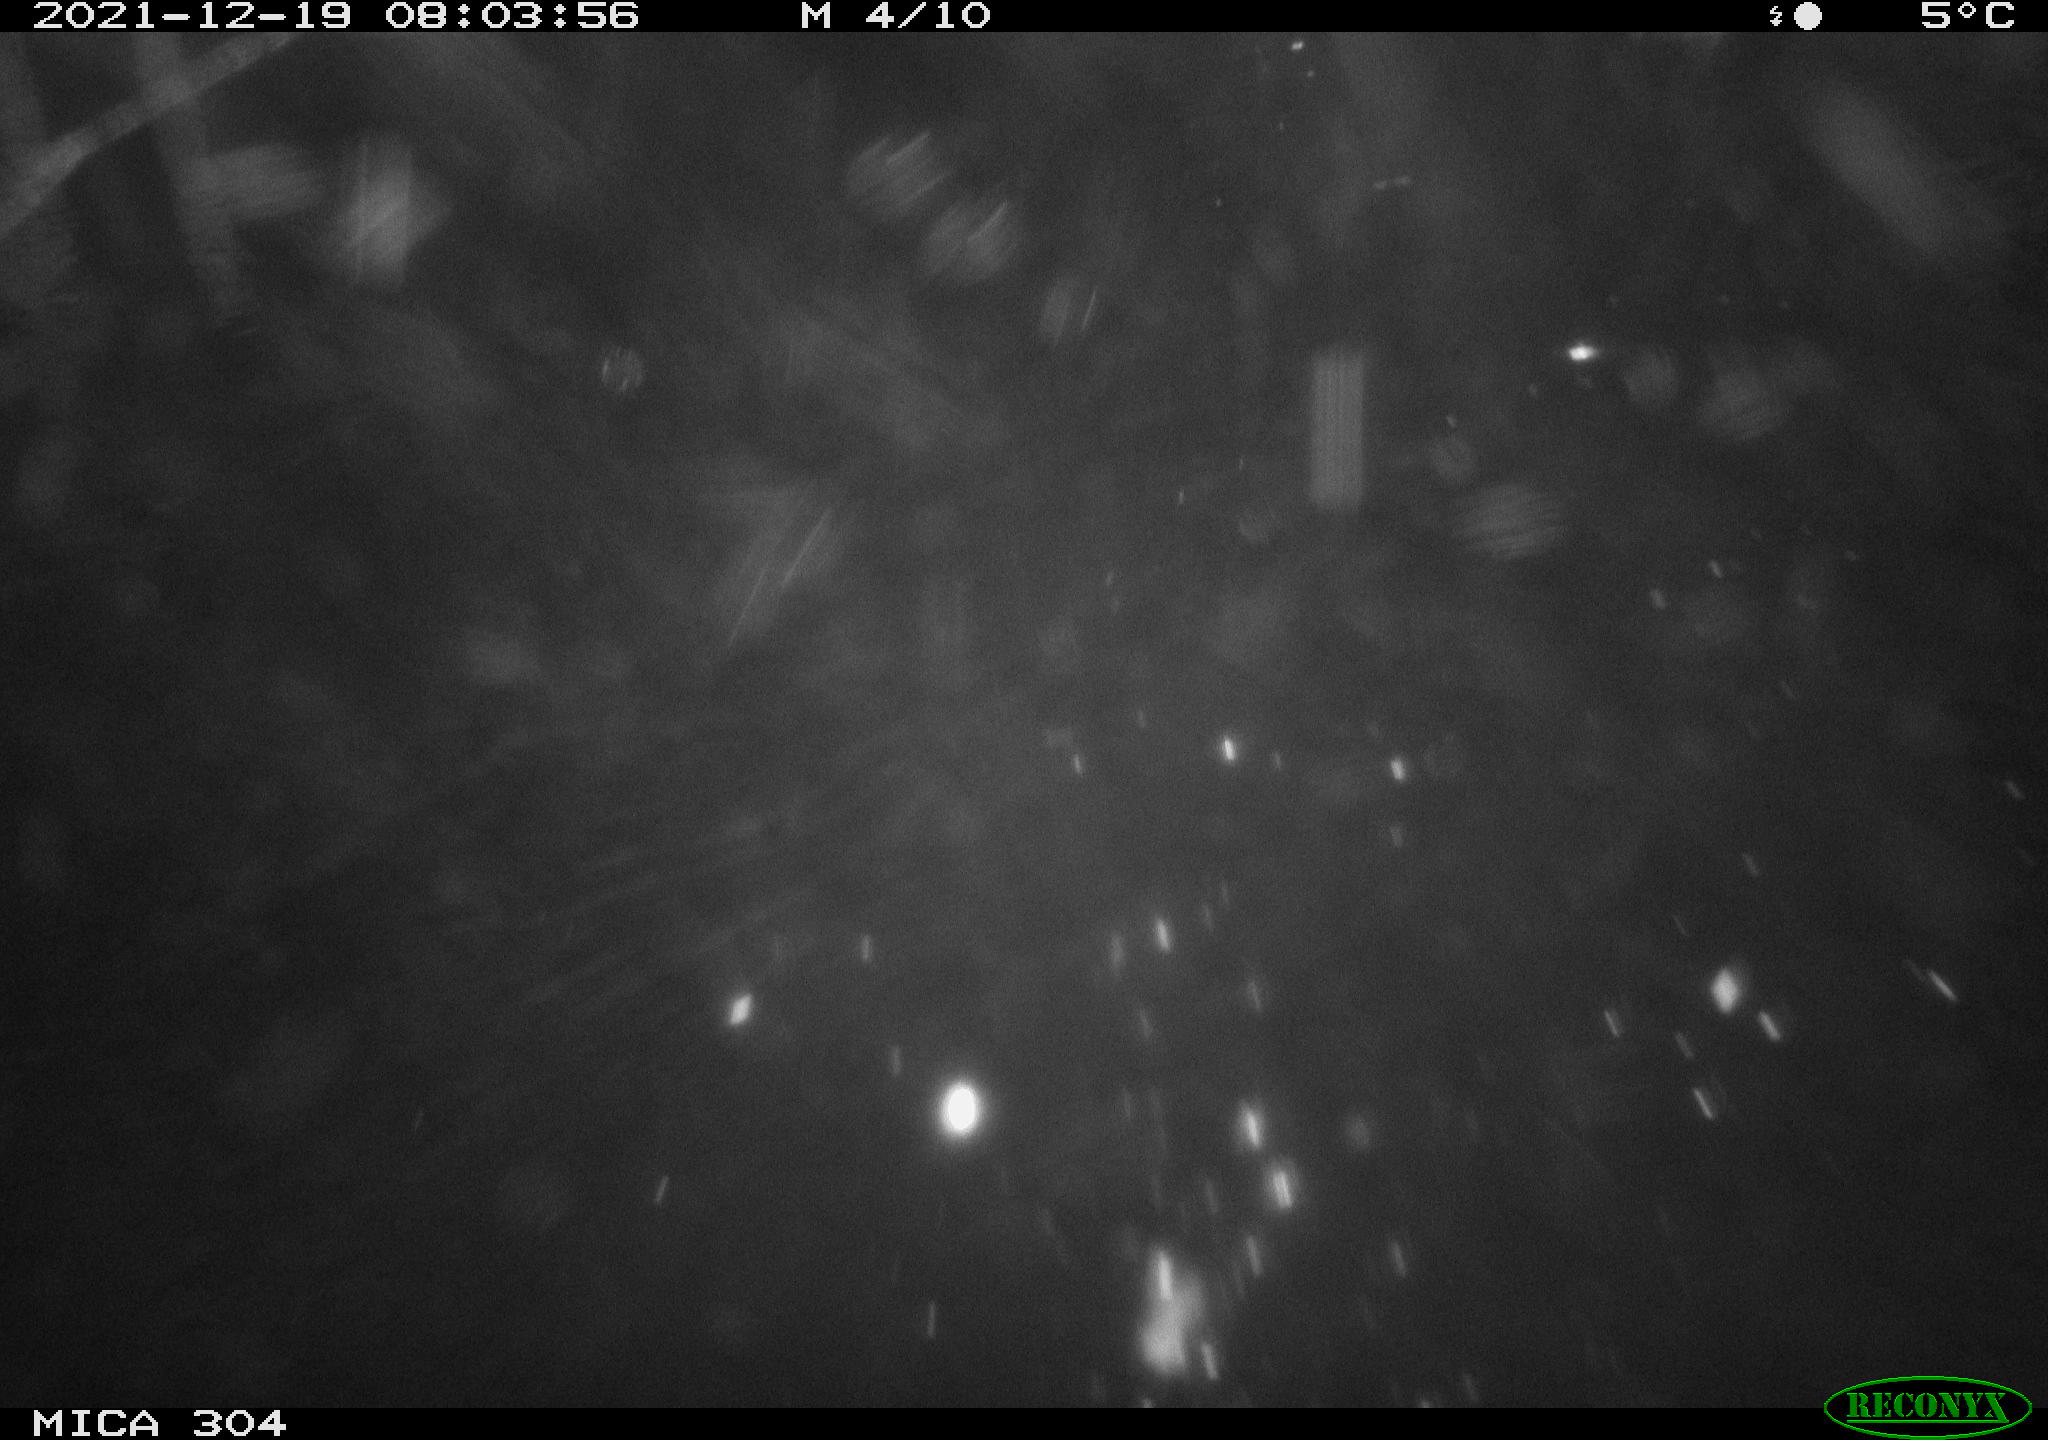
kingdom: Animalia
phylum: Chordata
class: Aves
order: Gruiformes
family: Rallidae
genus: Fulica
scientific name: Fulica atra
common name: Eurasian coot
